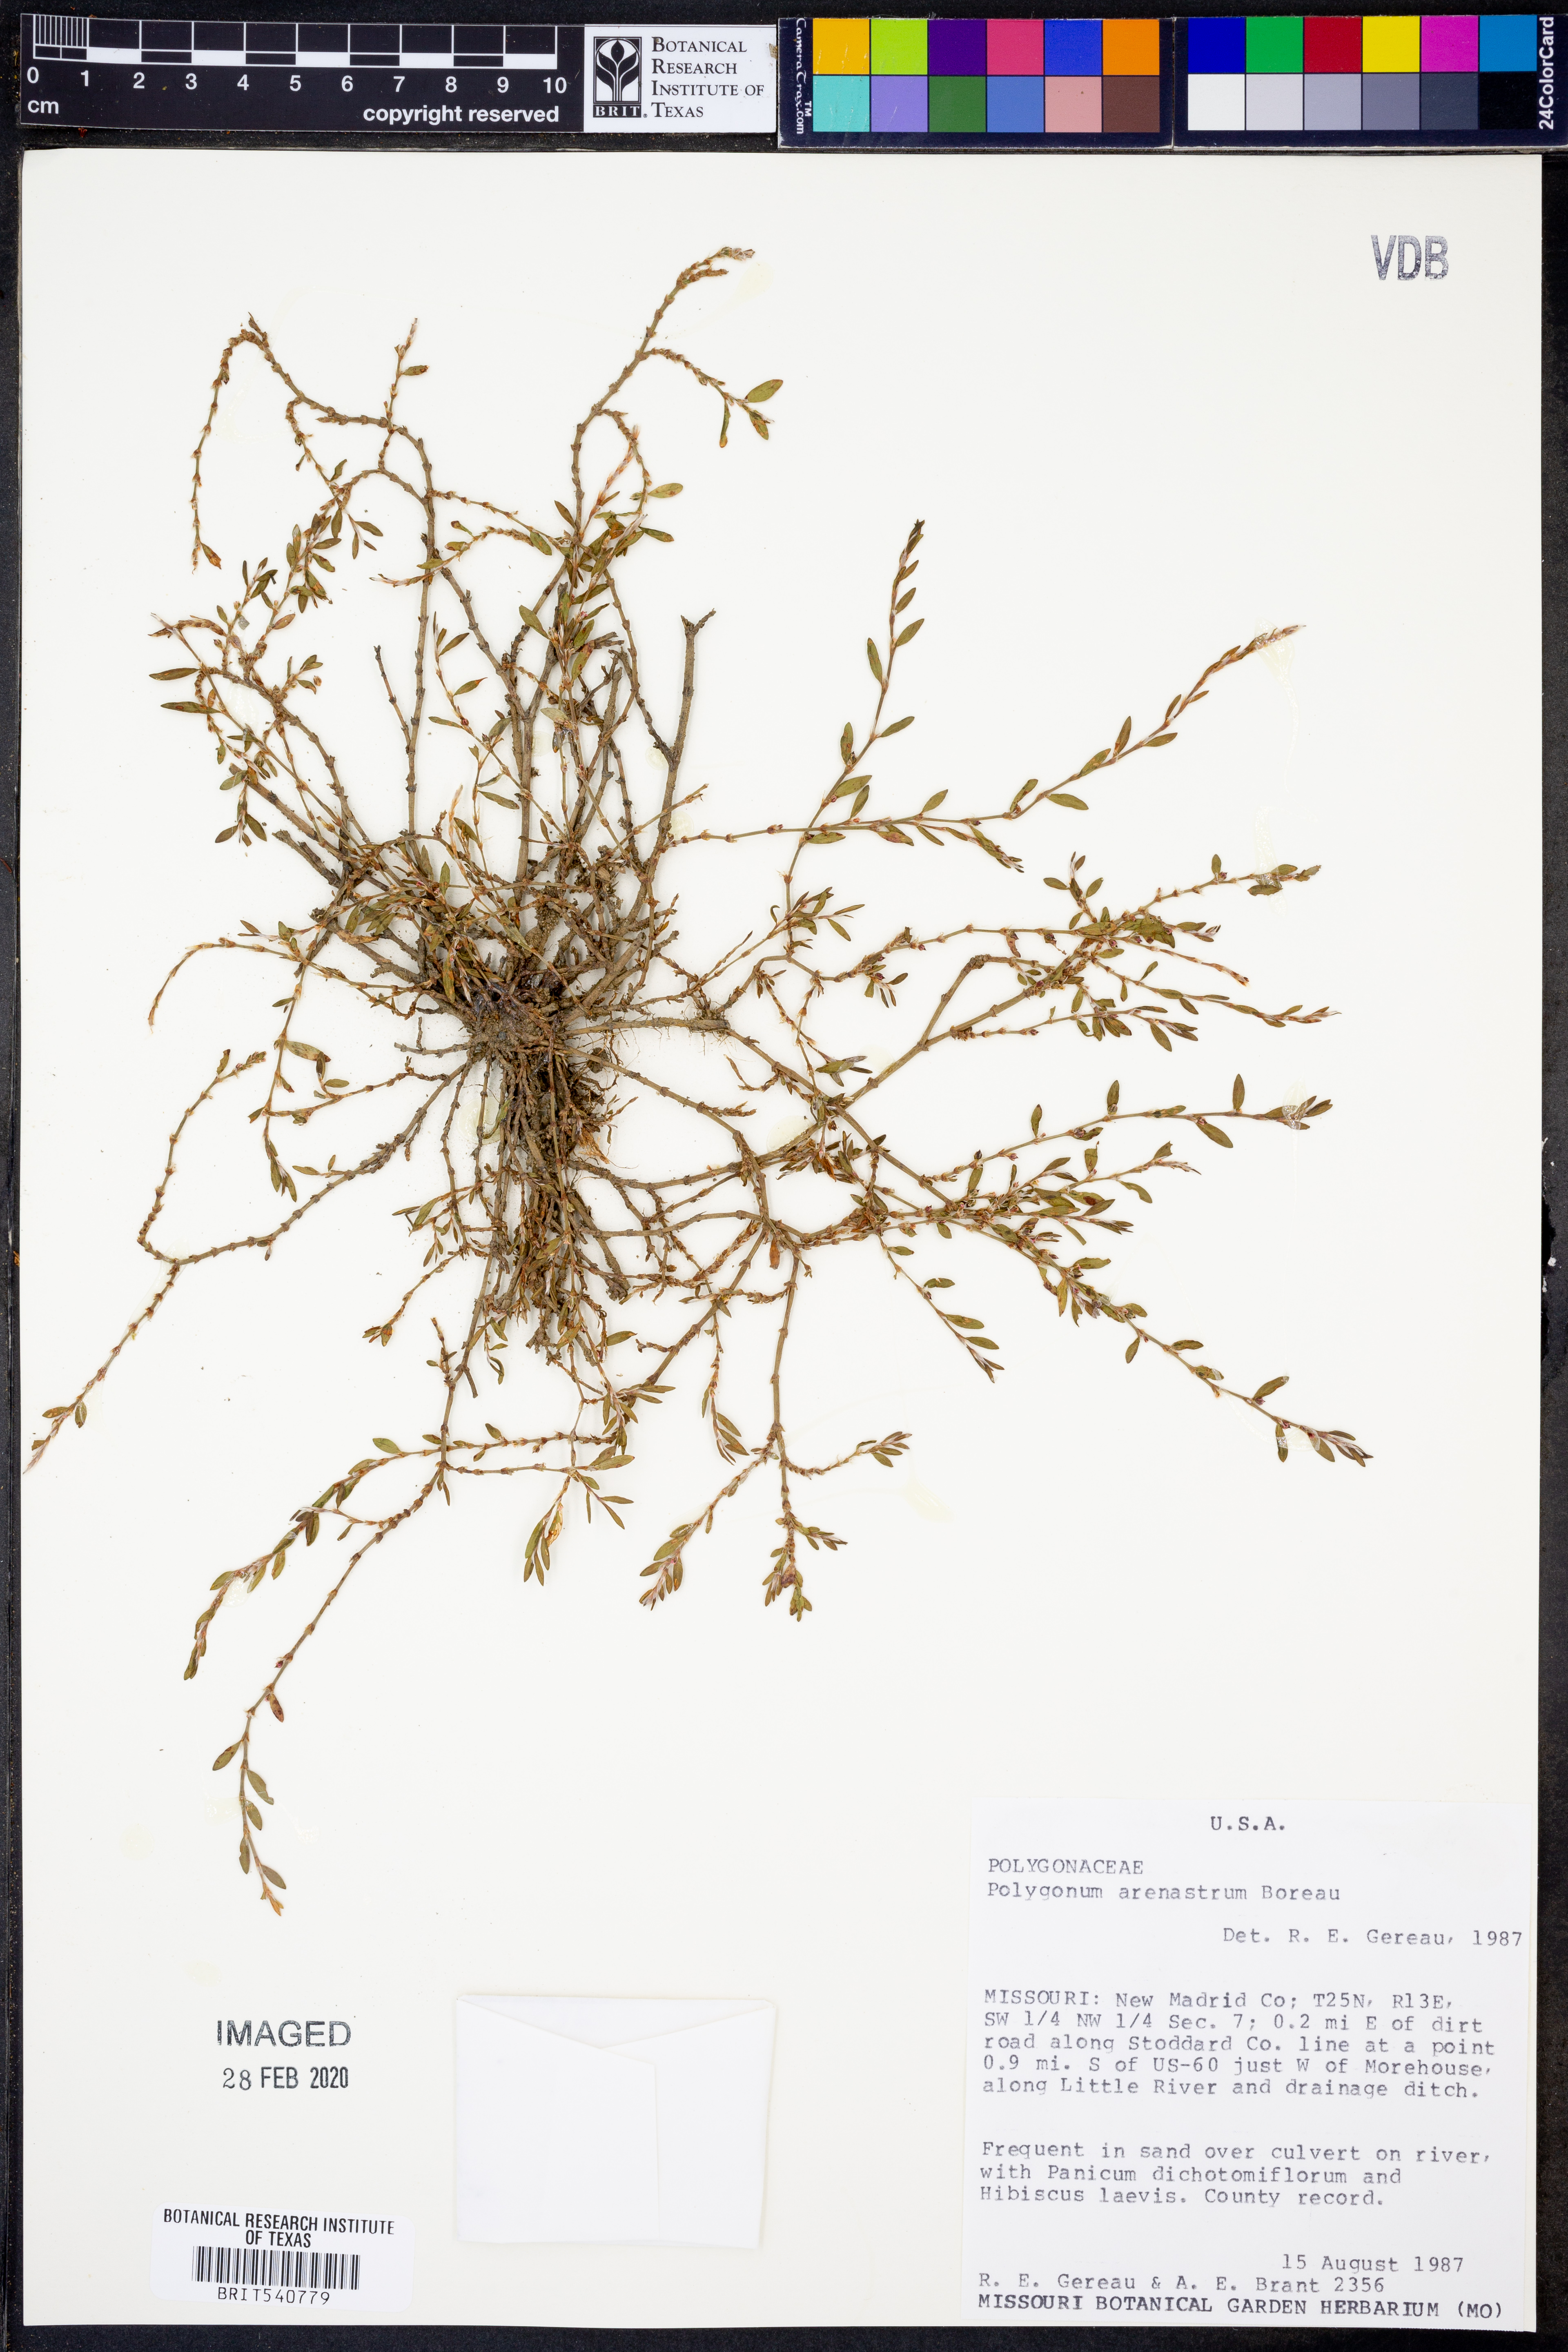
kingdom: Plantae
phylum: Tracheophyta
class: Magnoliopsida
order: Caryophyllales
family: Polygonaceae
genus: Polygonum
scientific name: Polygonum arenastrum
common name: Equal-leaved knotgrass
